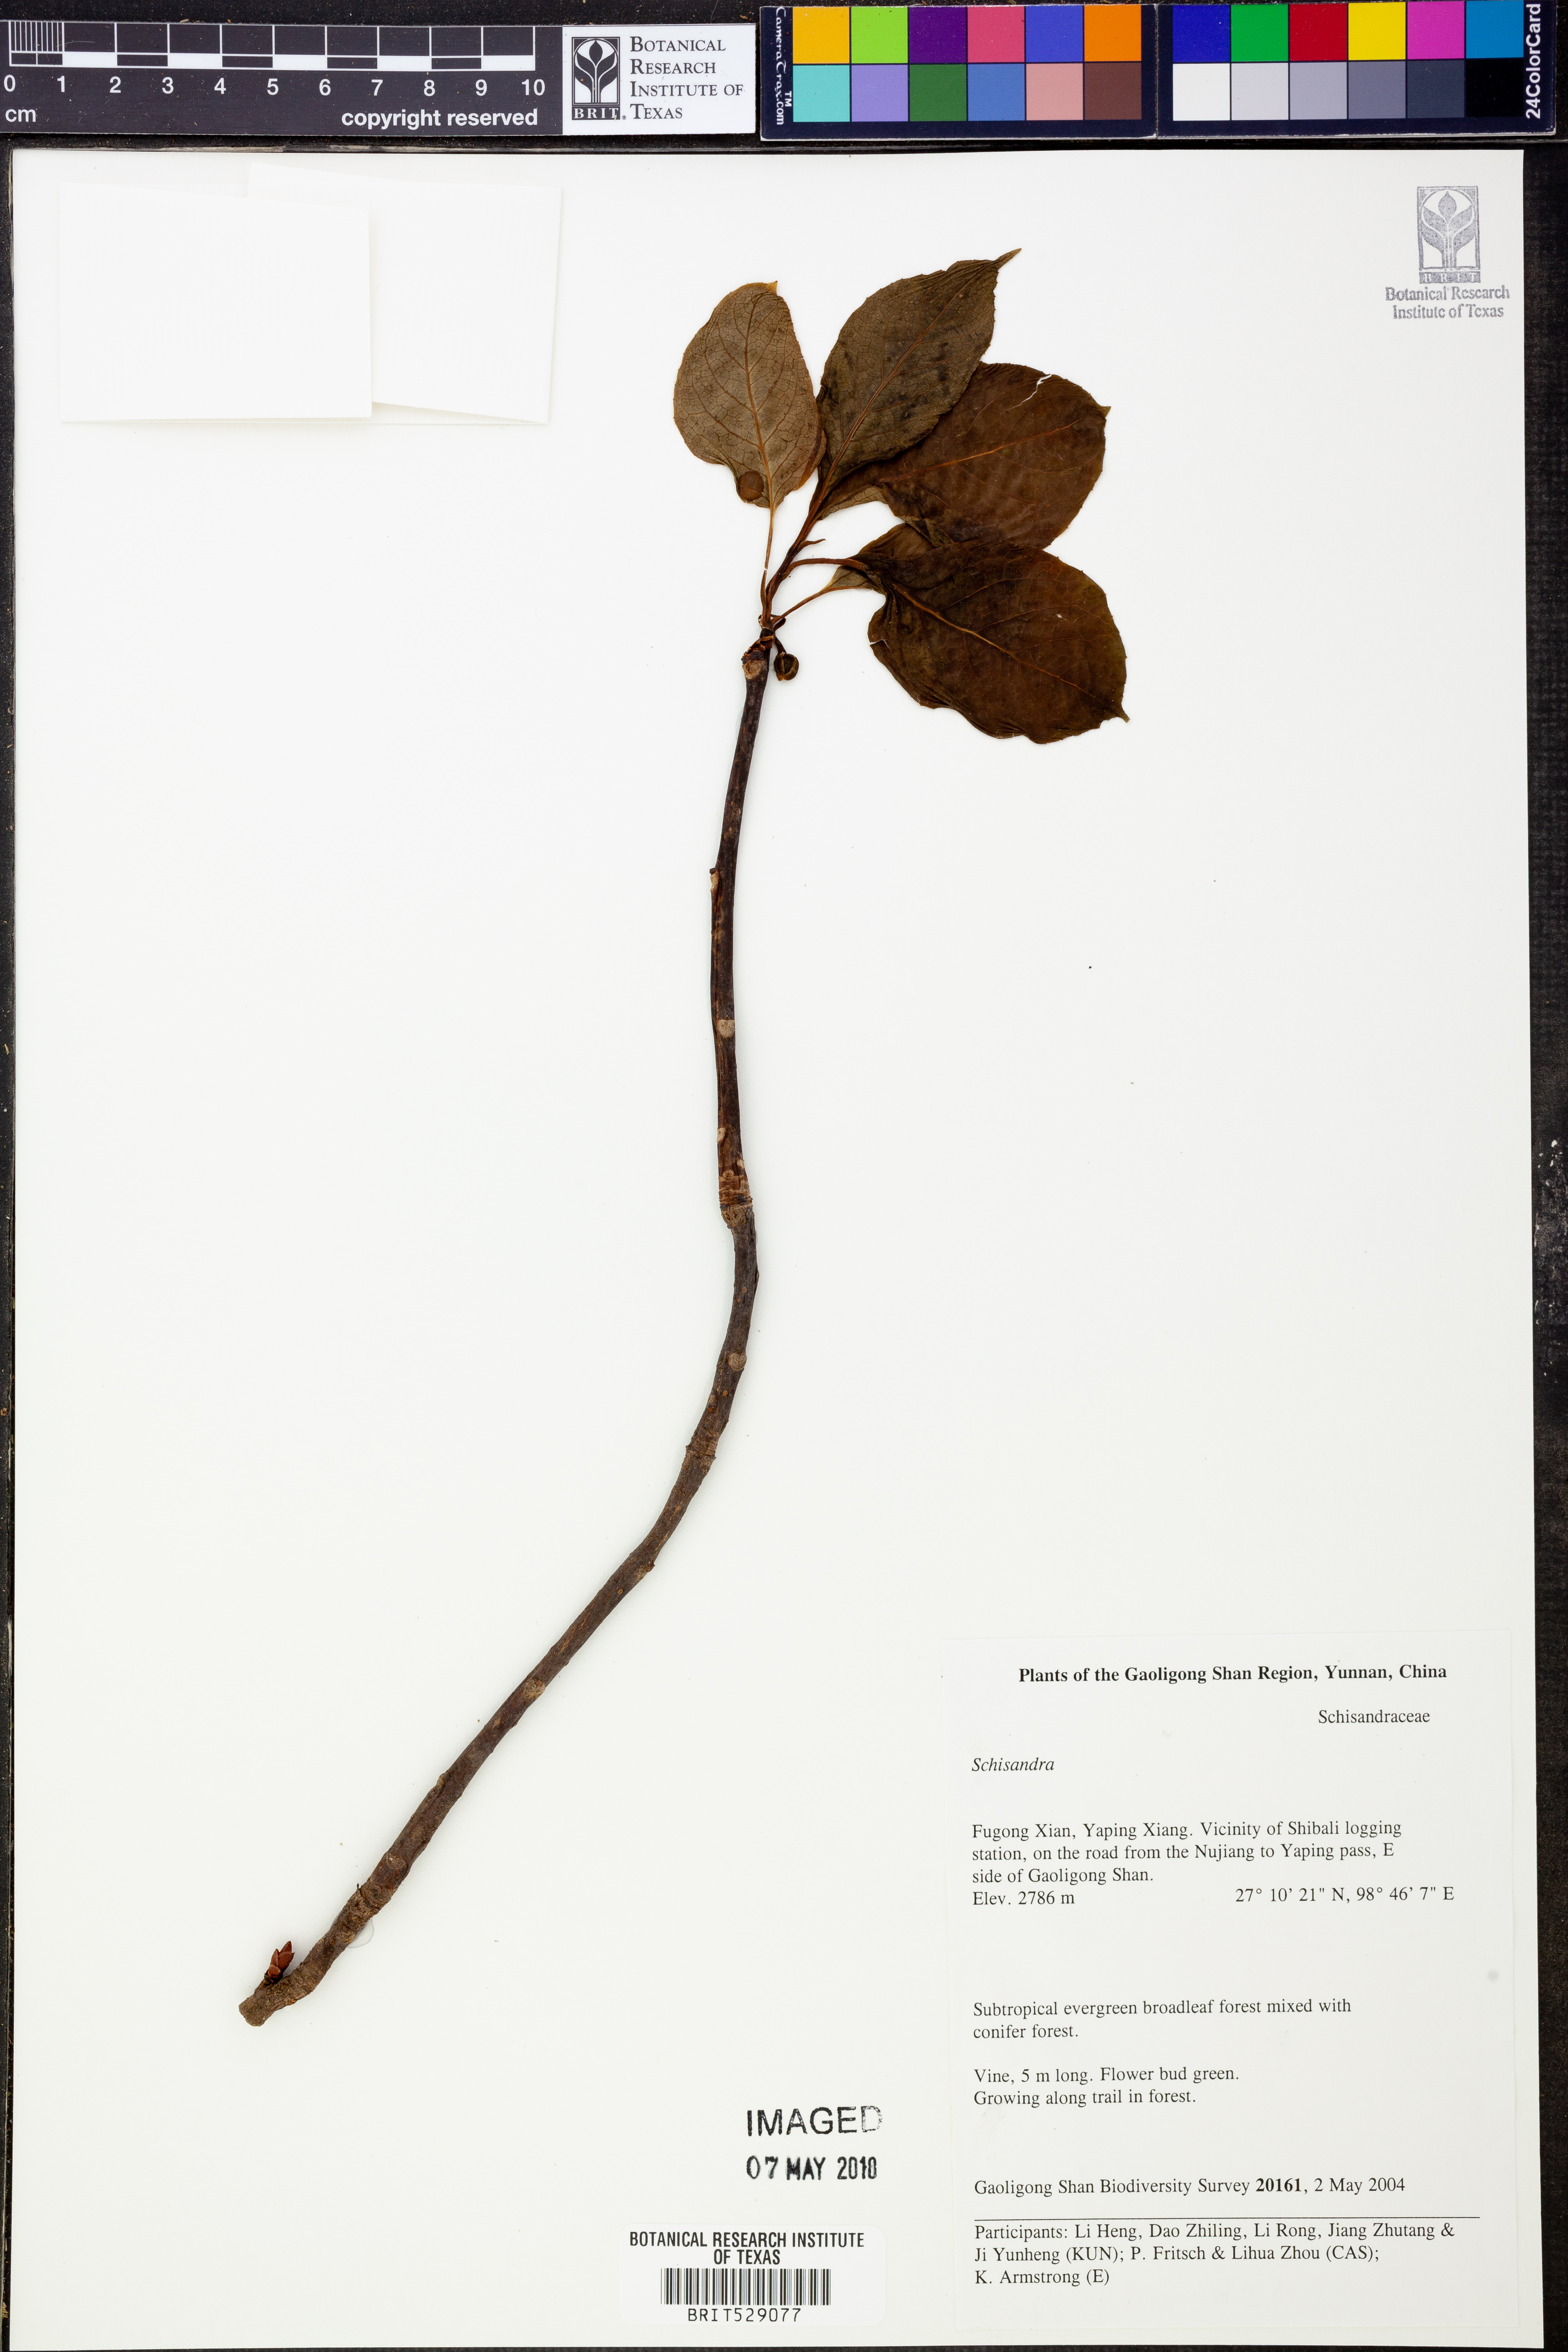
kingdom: Plantae
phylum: Tracheophyta
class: Magnoliopsida
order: Austrobaileyales
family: Schisandraceae
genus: Schisandra
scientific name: Schisandra
